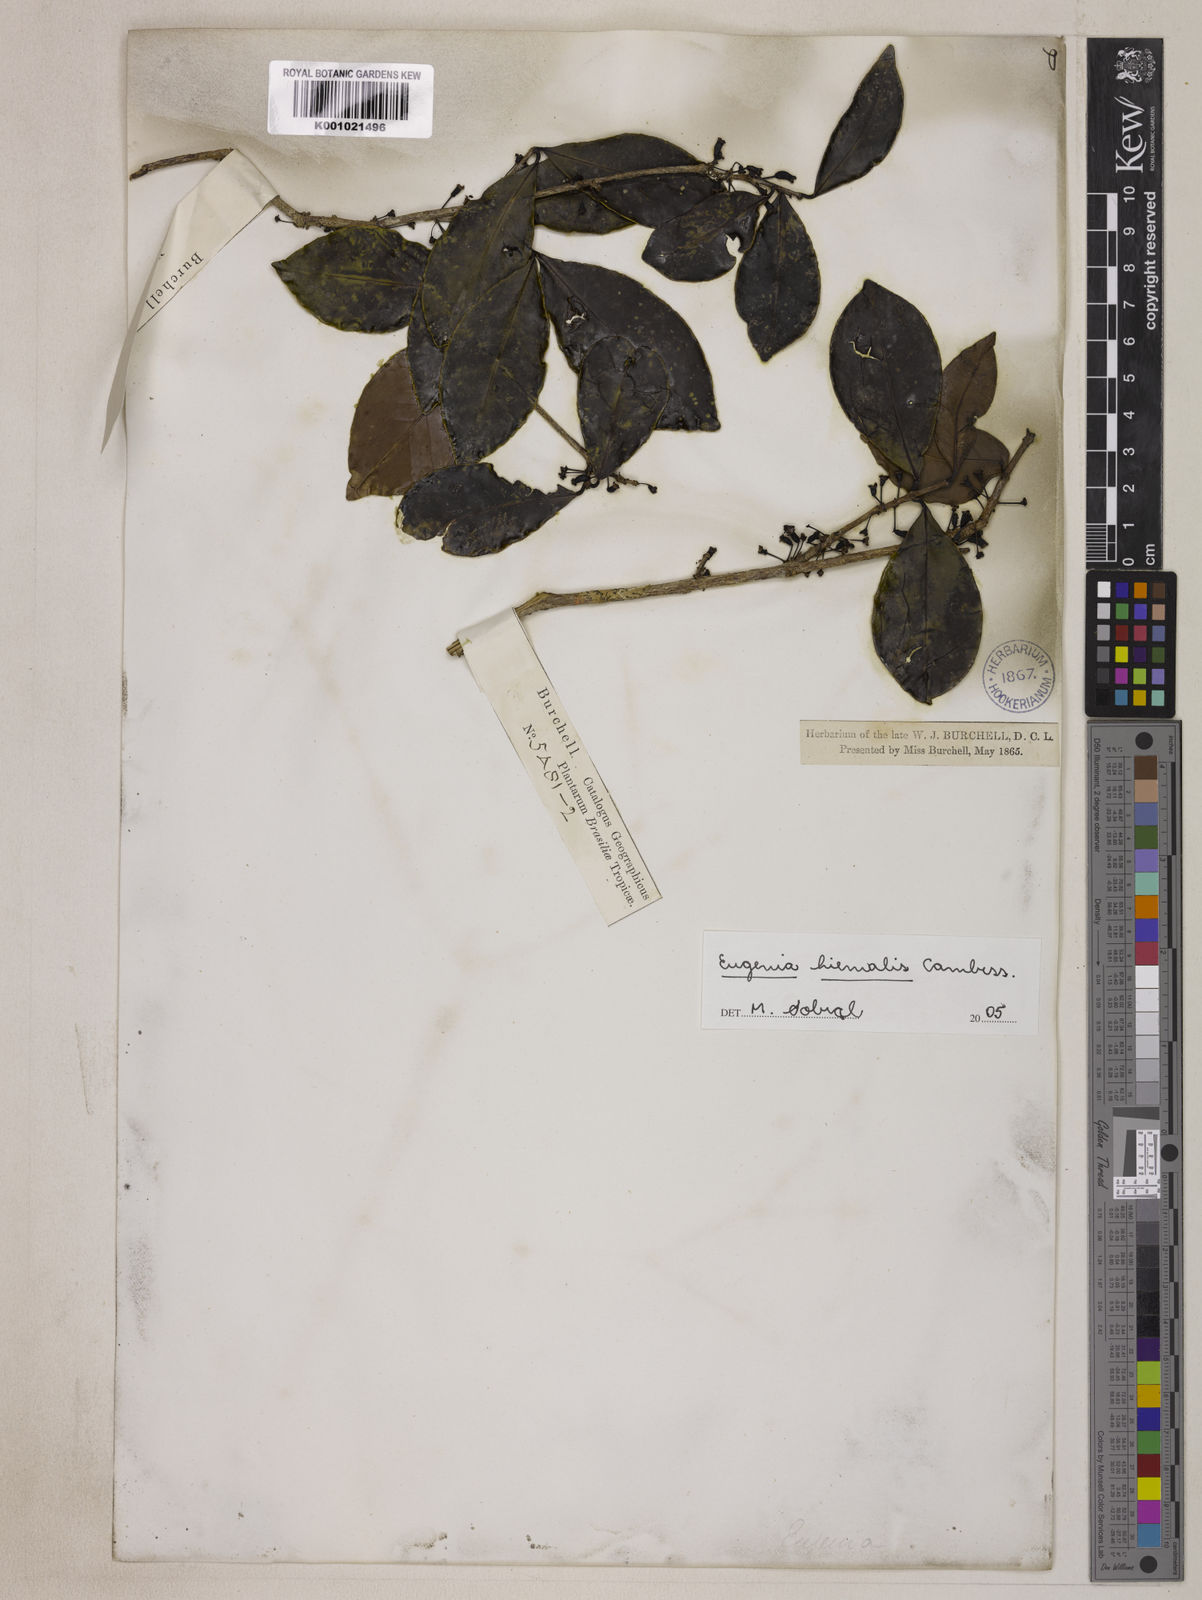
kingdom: Plantae
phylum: Tracheophyta
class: Magnoliopsida
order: Myrtales
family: Myrtaceae
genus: Eugenia
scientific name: Eugenia hiemalis
